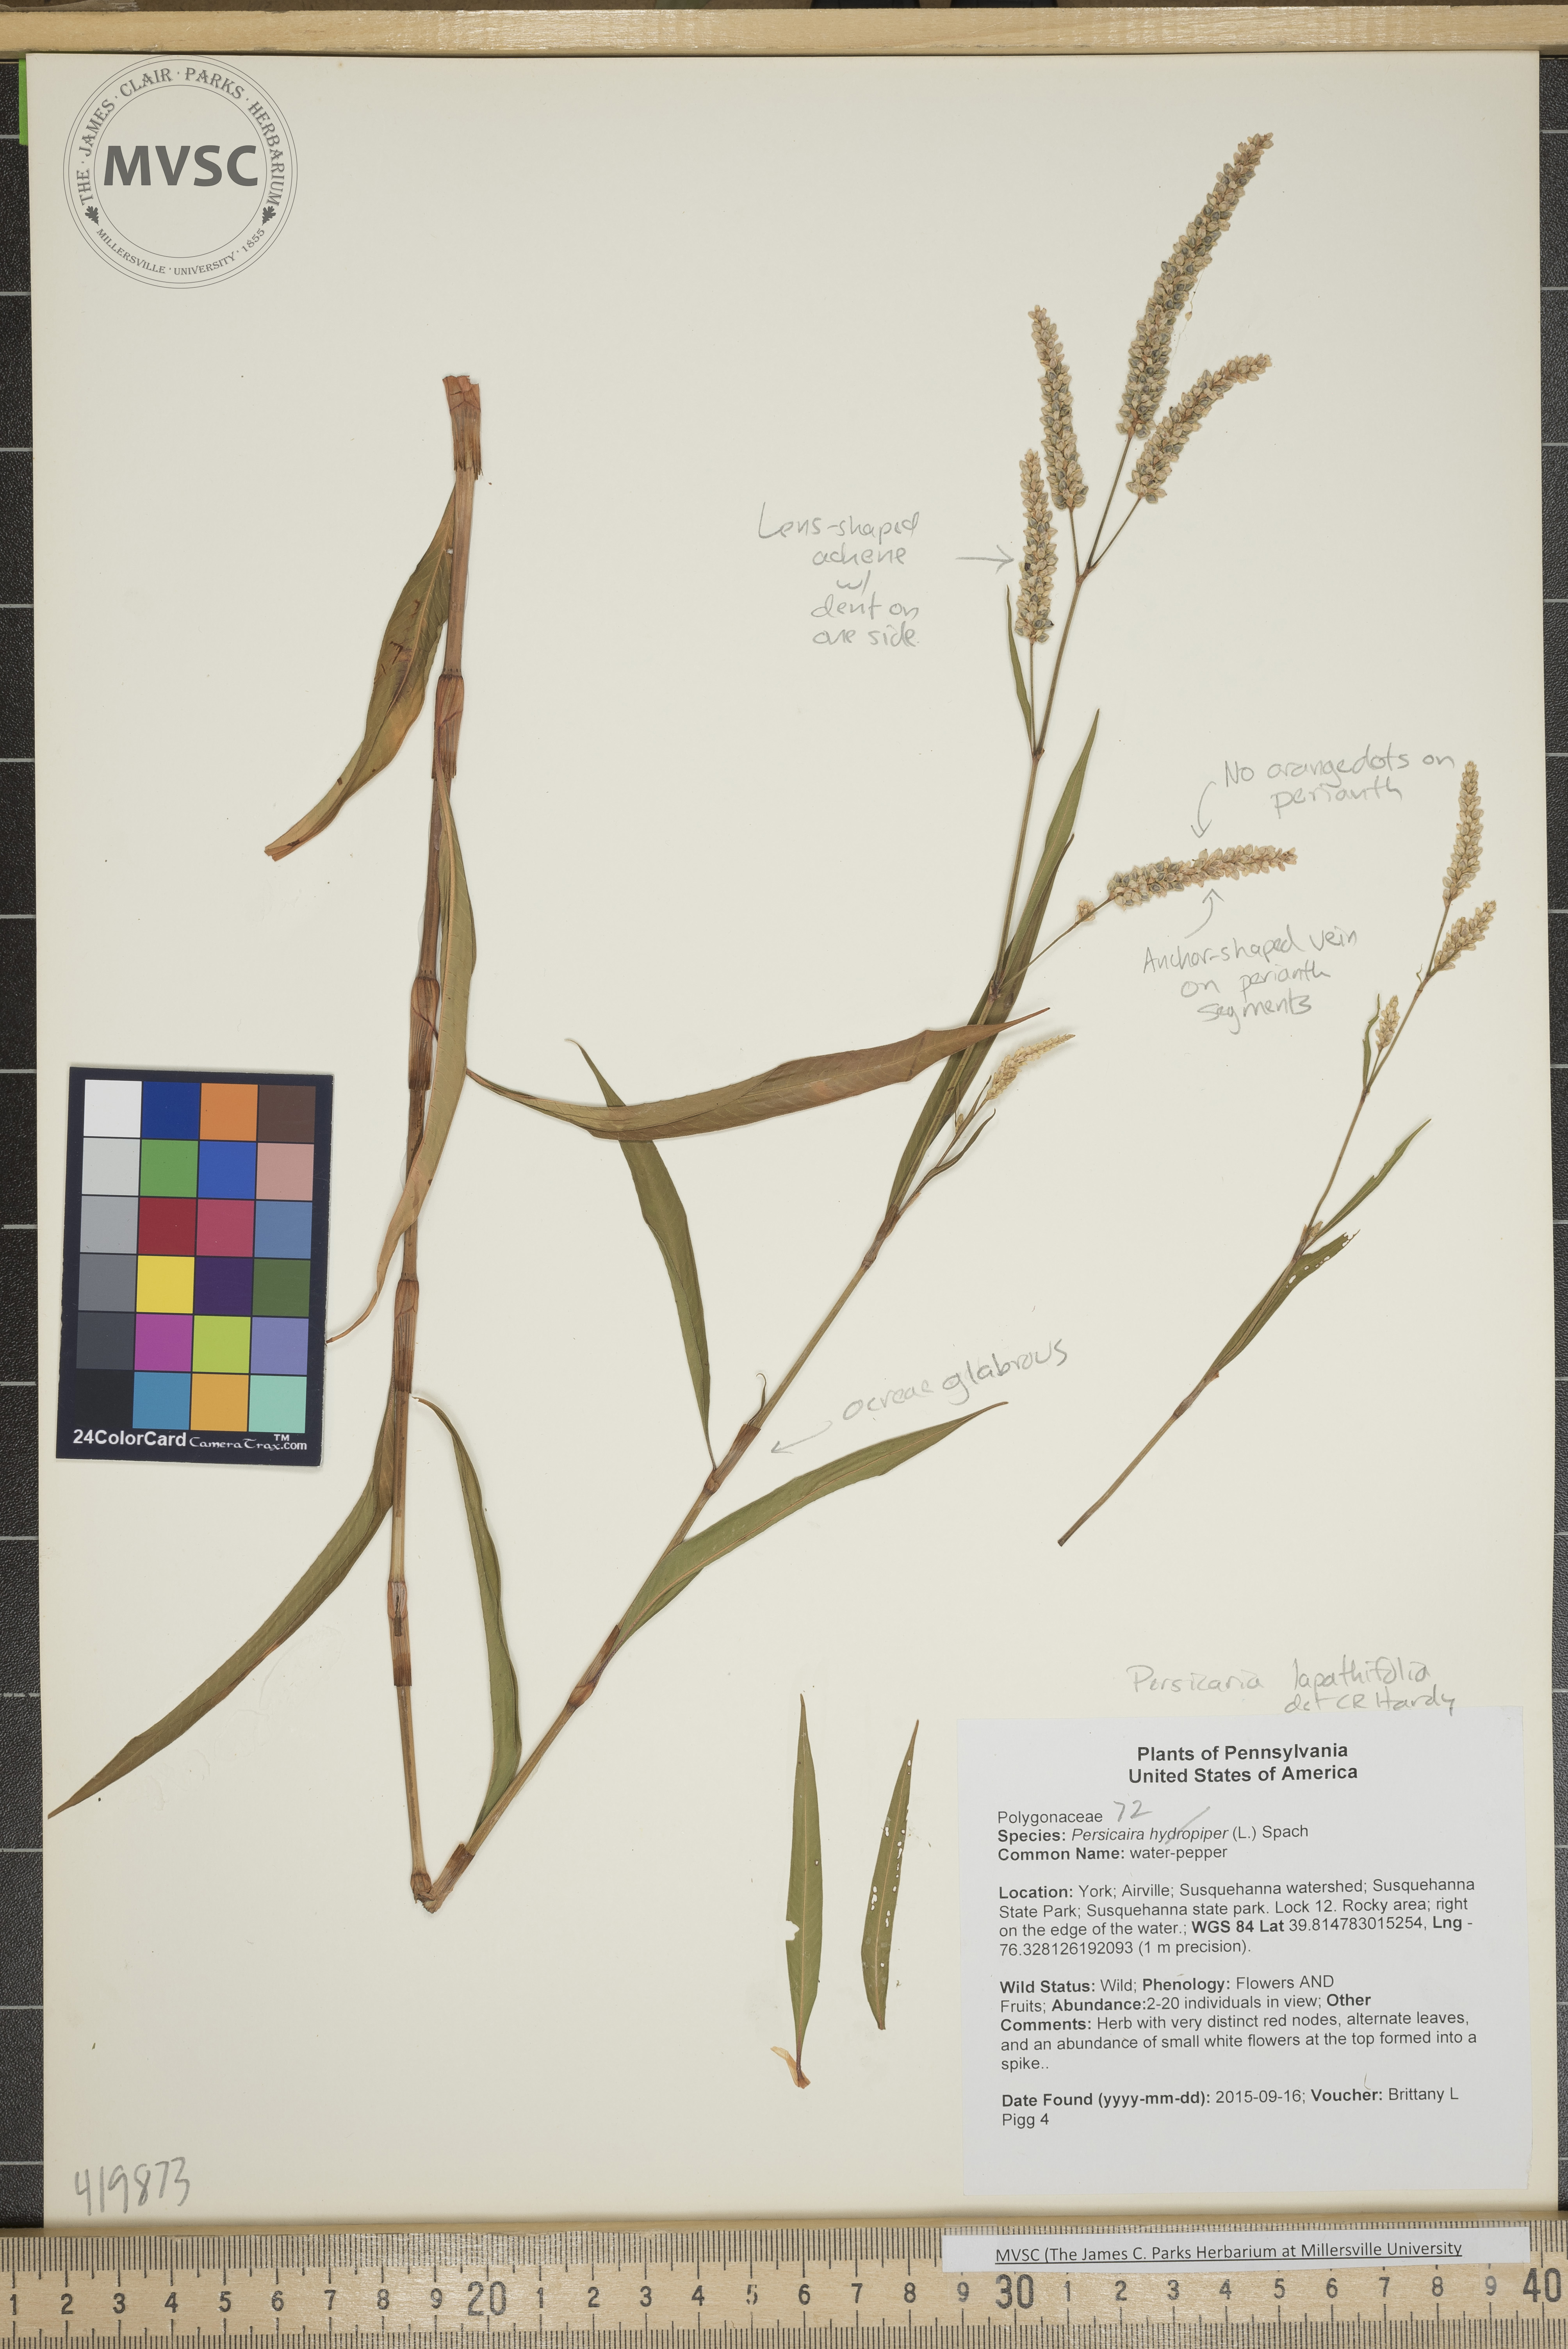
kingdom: Plantae
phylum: Tracheophyta
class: Magnoliopsida
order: Caryophyllales
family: Polygonaceae
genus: Persicaria
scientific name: Persicaria lapathifolia
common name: Knotweed
